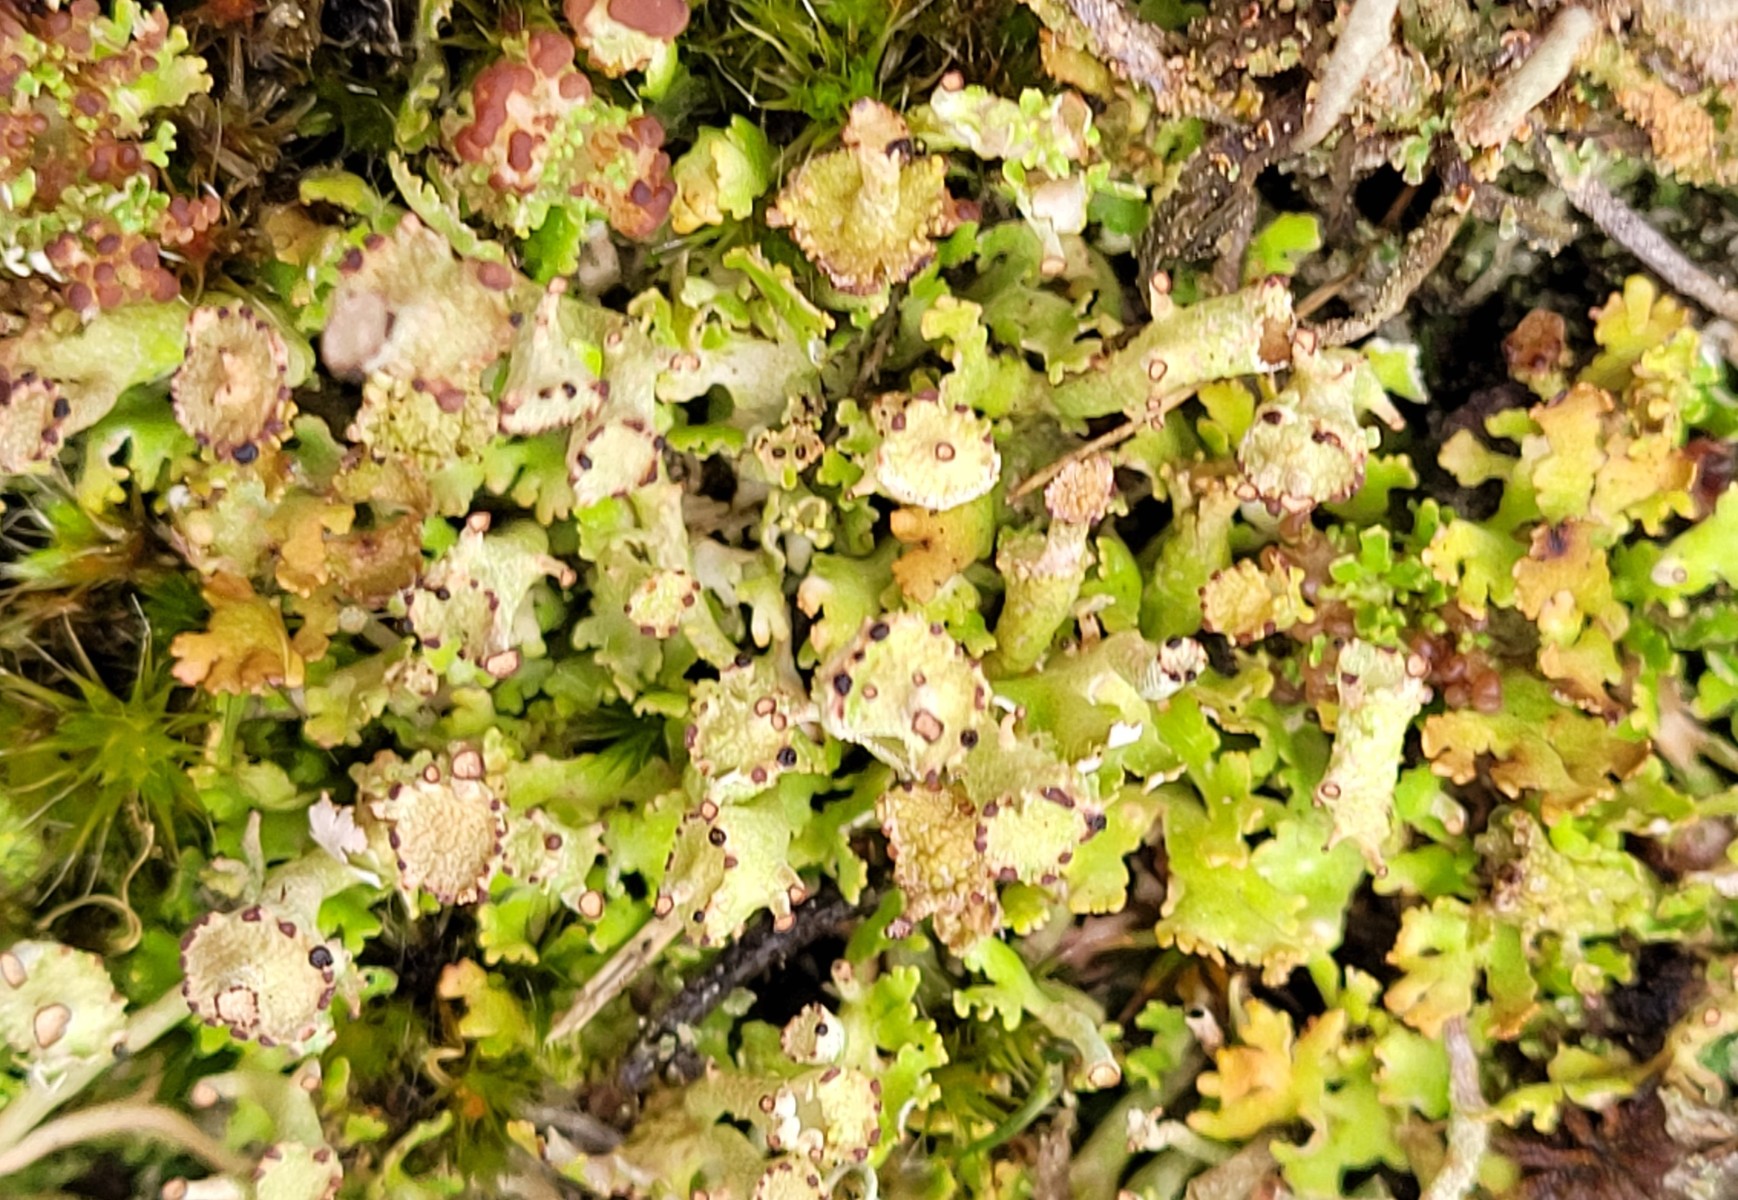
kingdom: Fungi
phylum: Ascomycota
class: Lecanoromycetes
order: Lecanorales
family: Cladoniaceae
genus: Cladonia
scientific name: Cladonia cervicornis
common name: gevir-bægerlav
